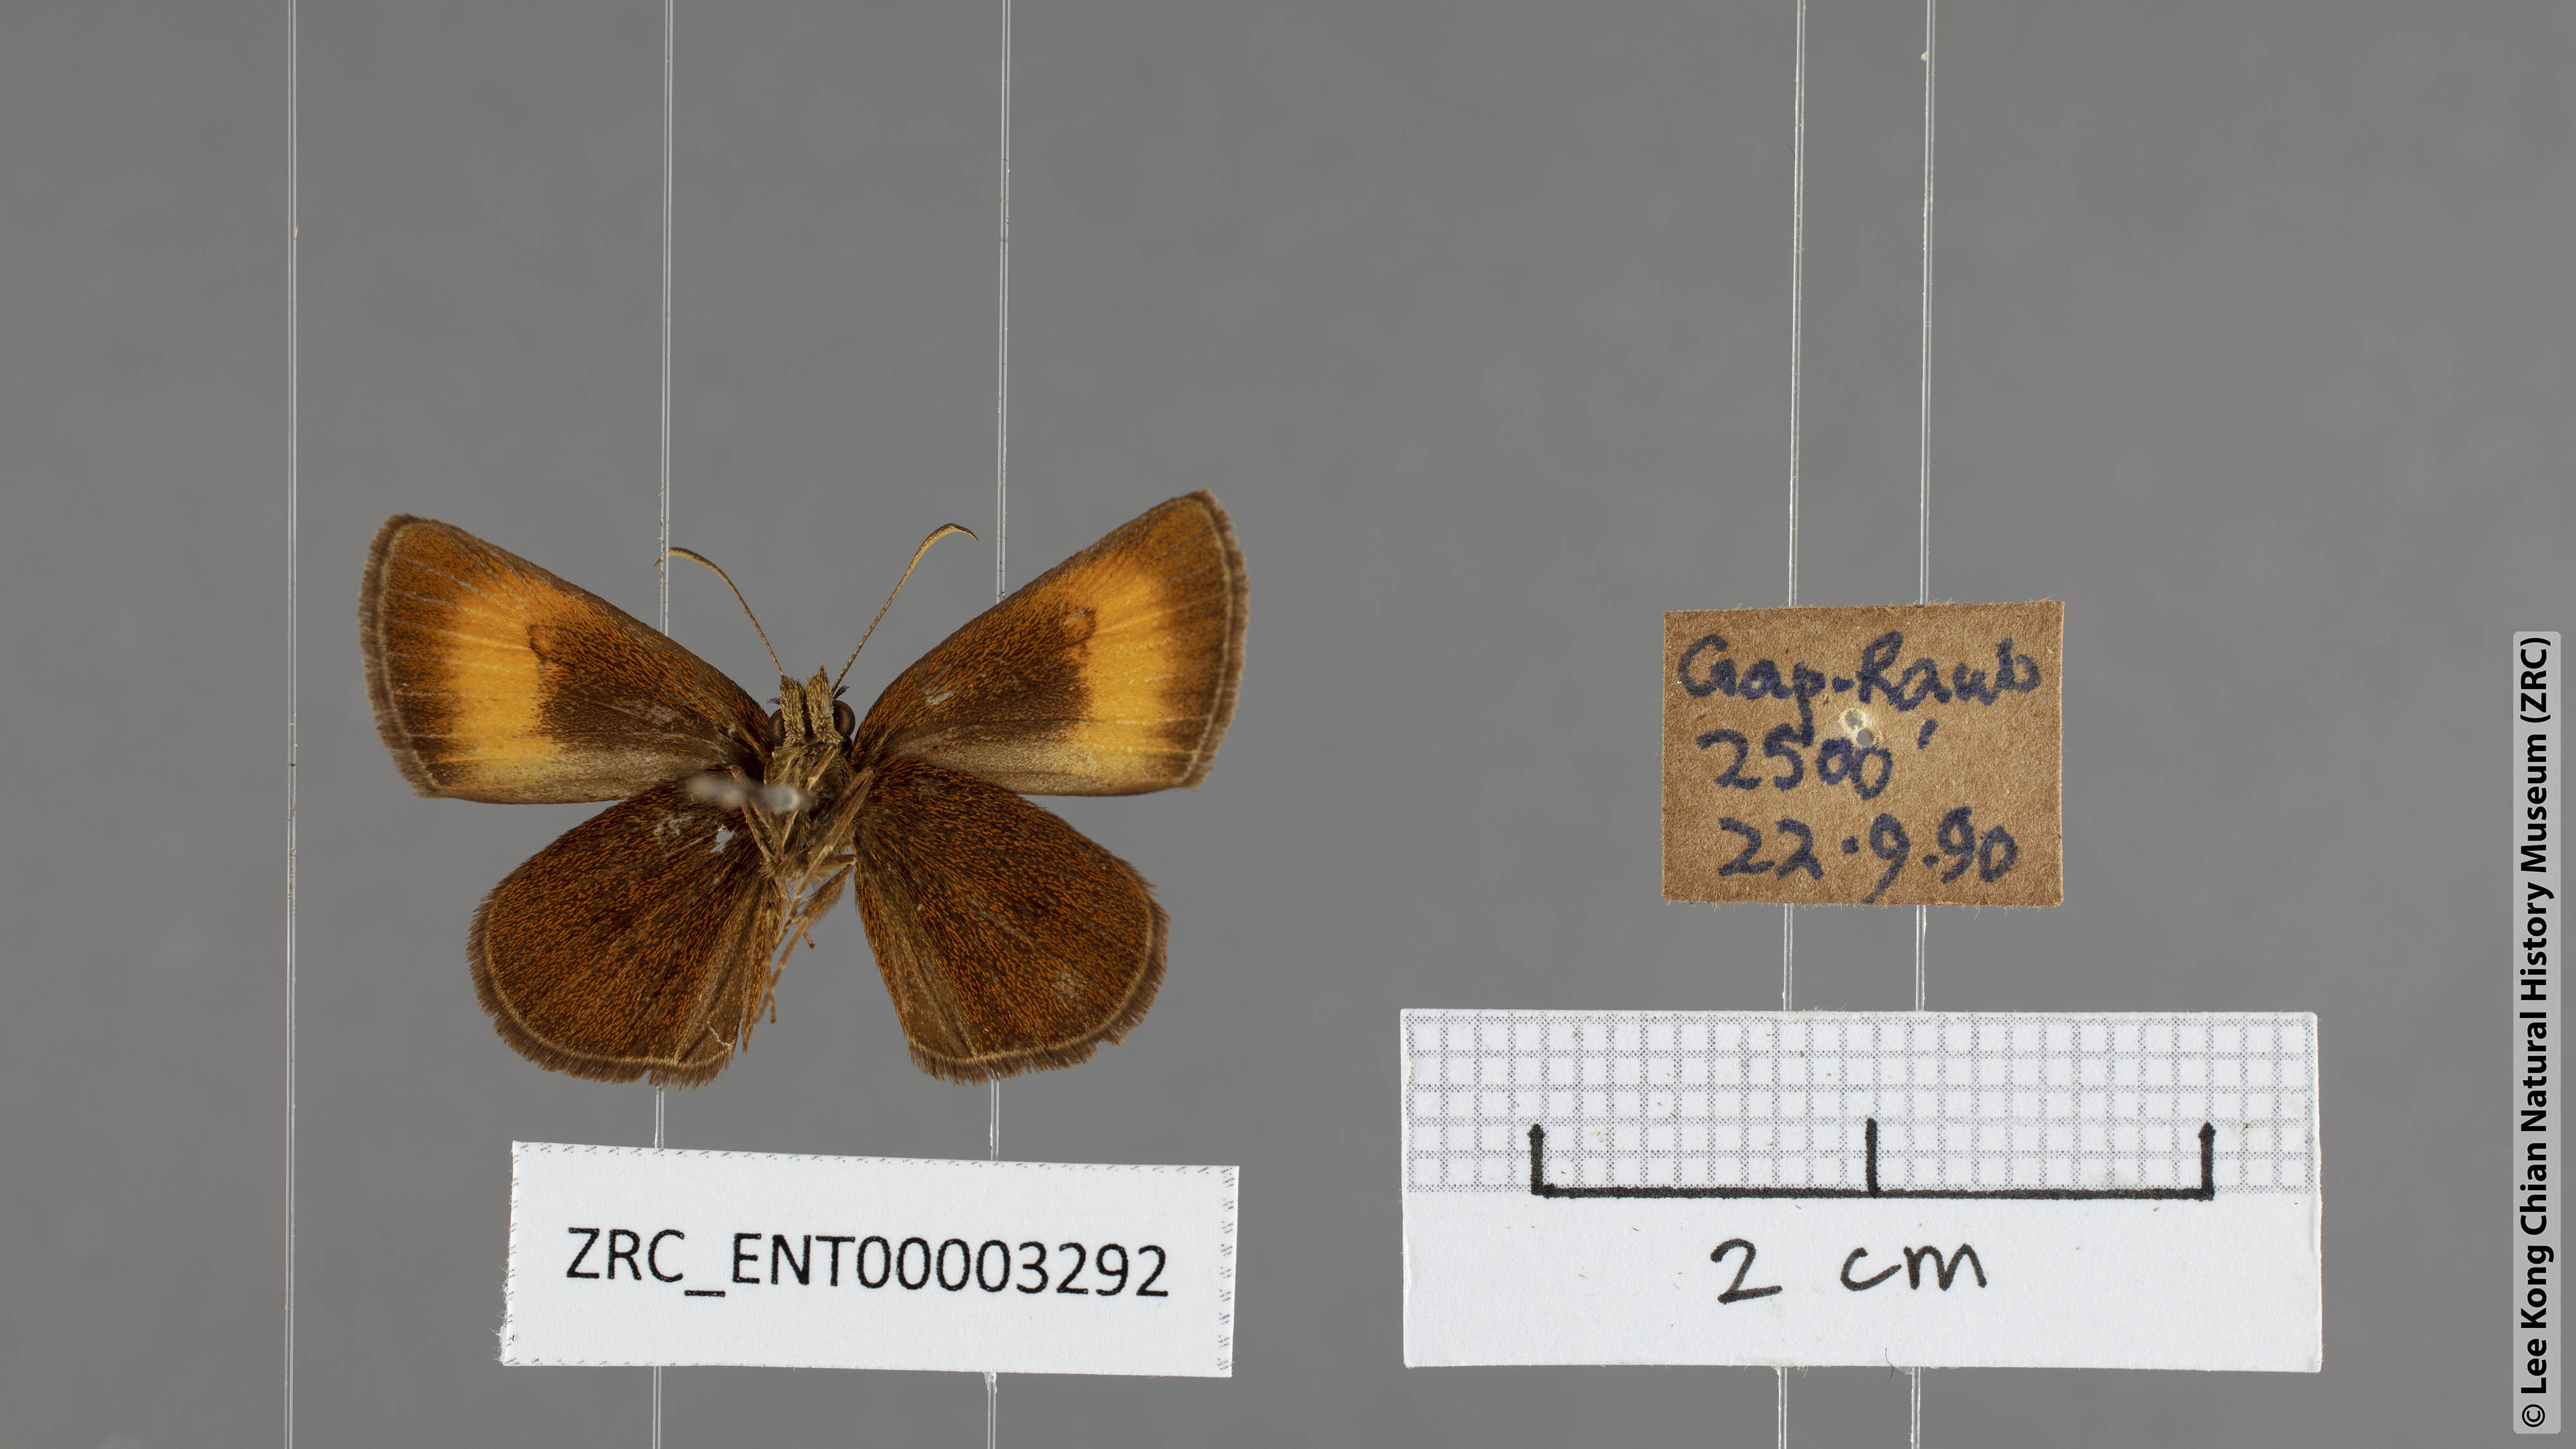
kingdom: Animalia
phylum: Arthropoda
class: Insecta
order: Lepidoptera
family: Hesperiidae
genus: Iambrix
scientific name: Iambrix Idmon obliquans
